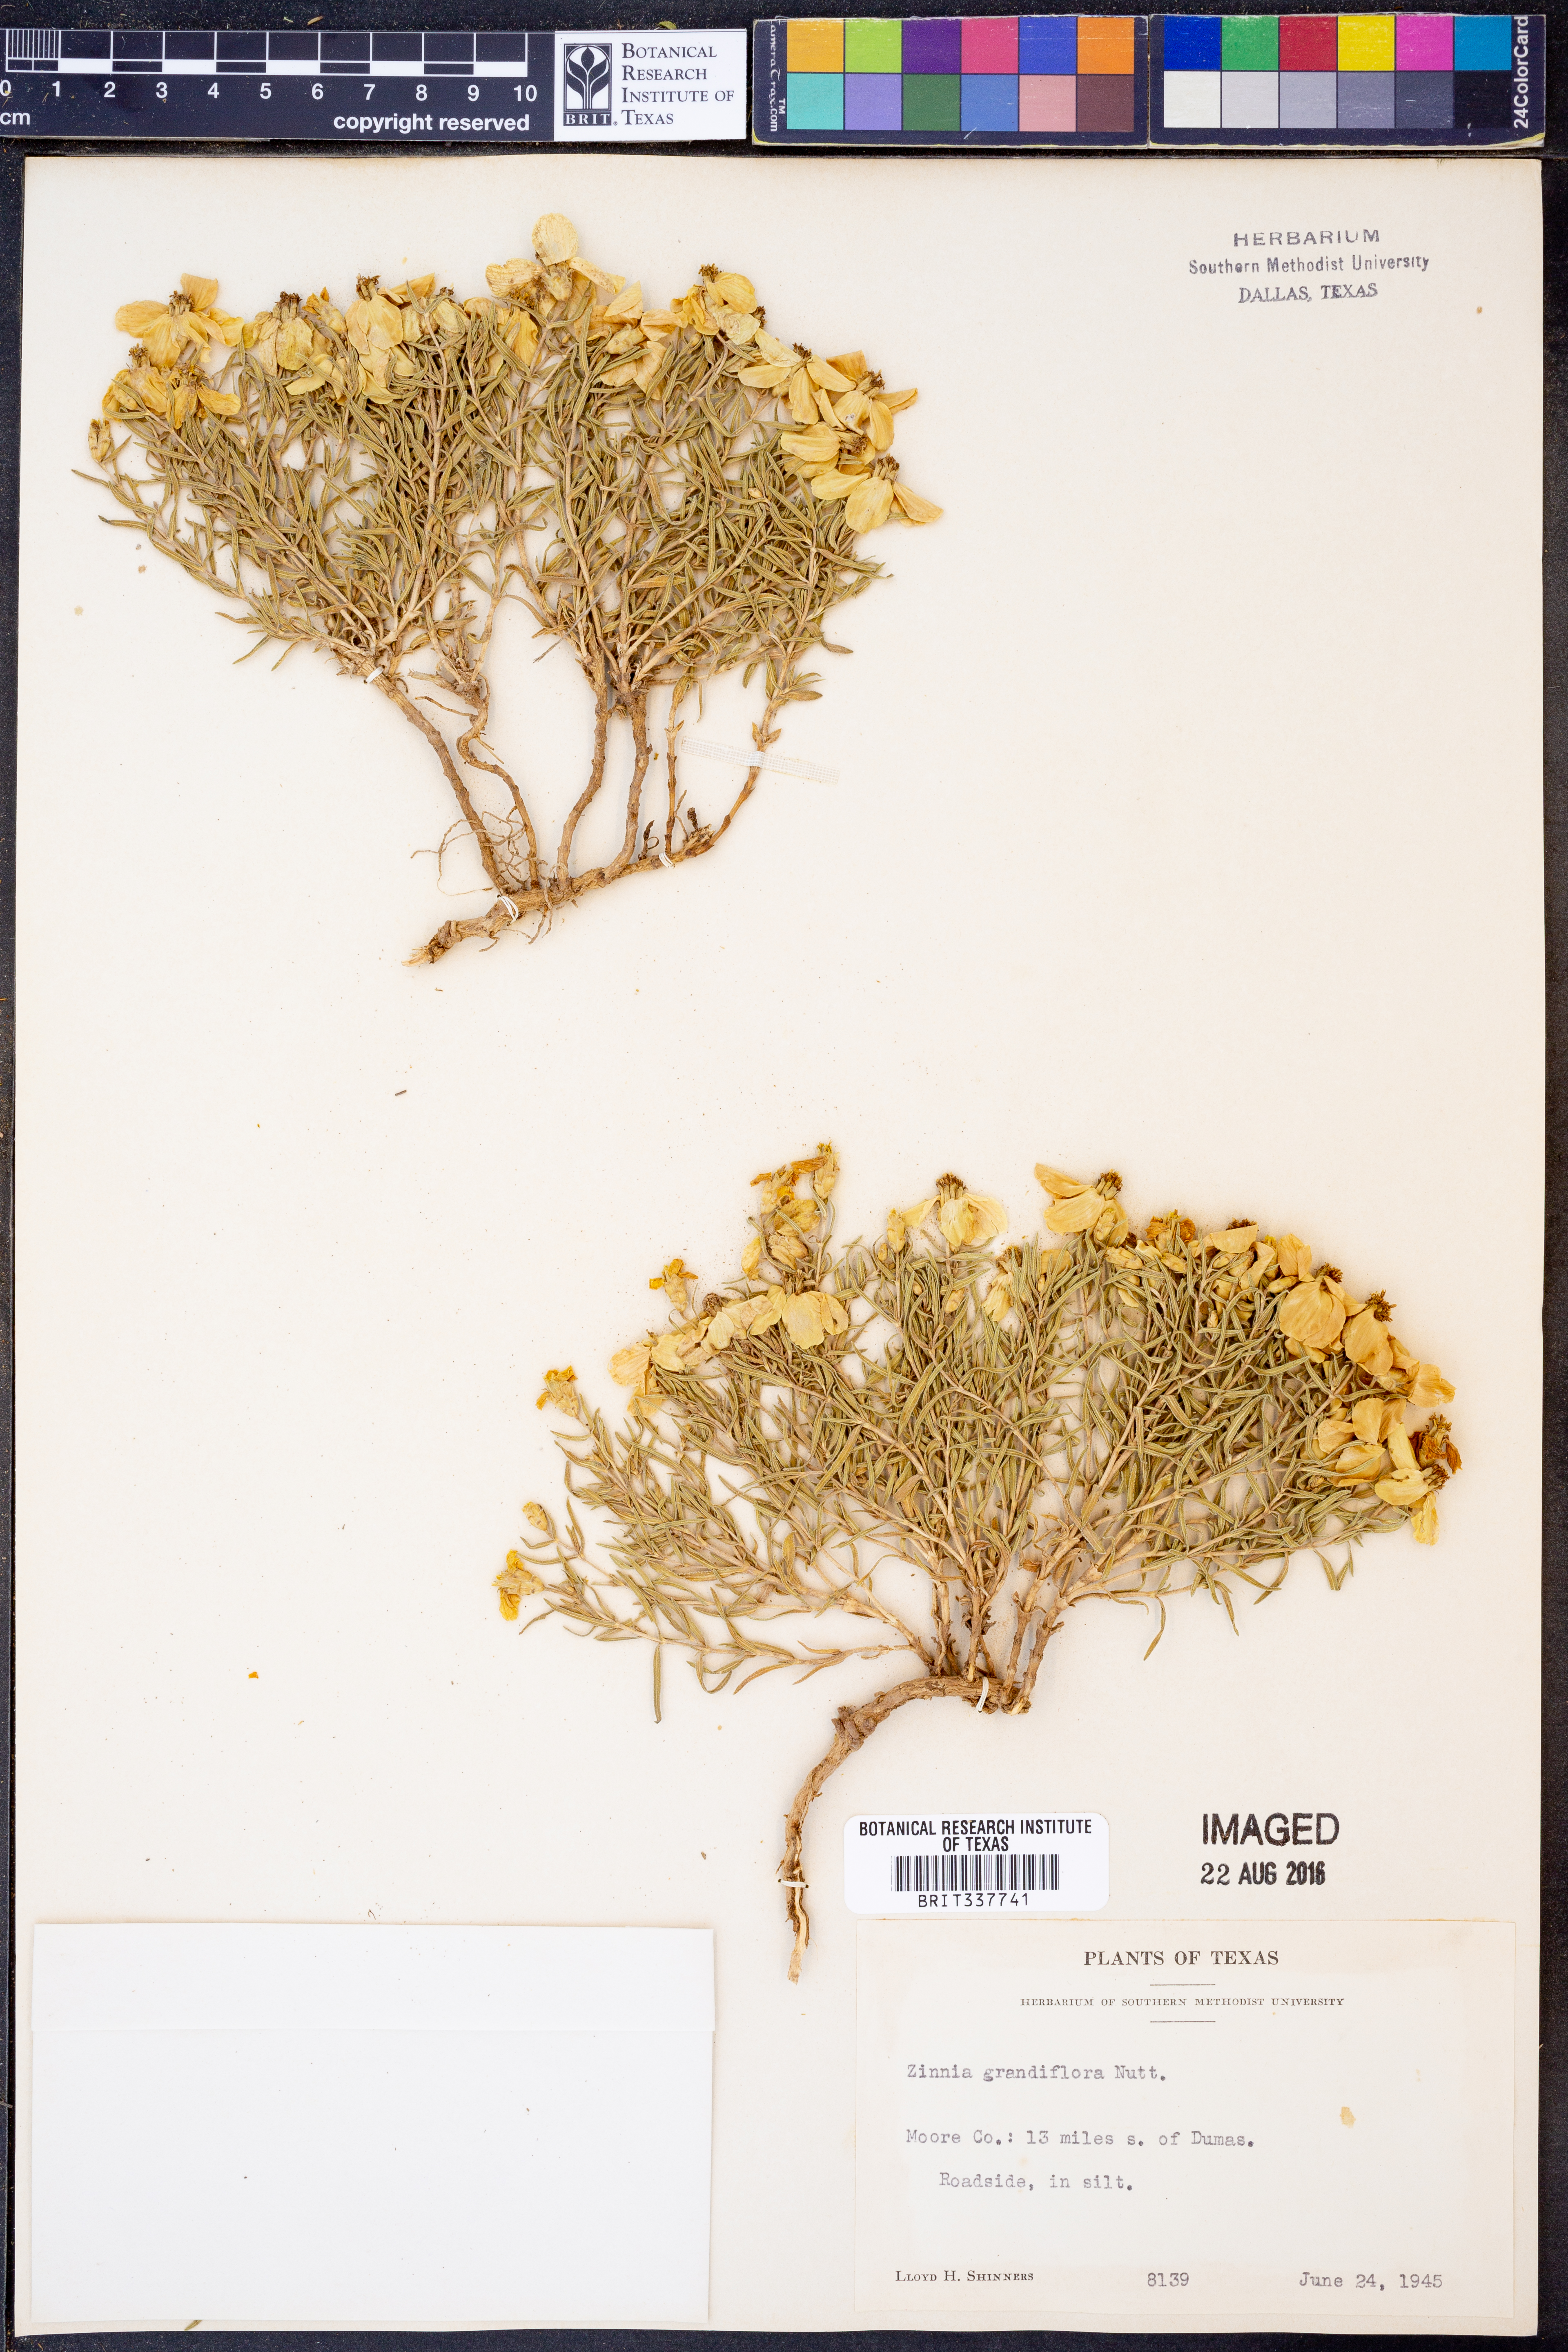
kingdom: Plantae
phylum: Tracheophyta
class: Magnoliopsida
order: Asterales
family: Asteraceae
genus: Zinnia
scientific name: Zinnia grandiflora
